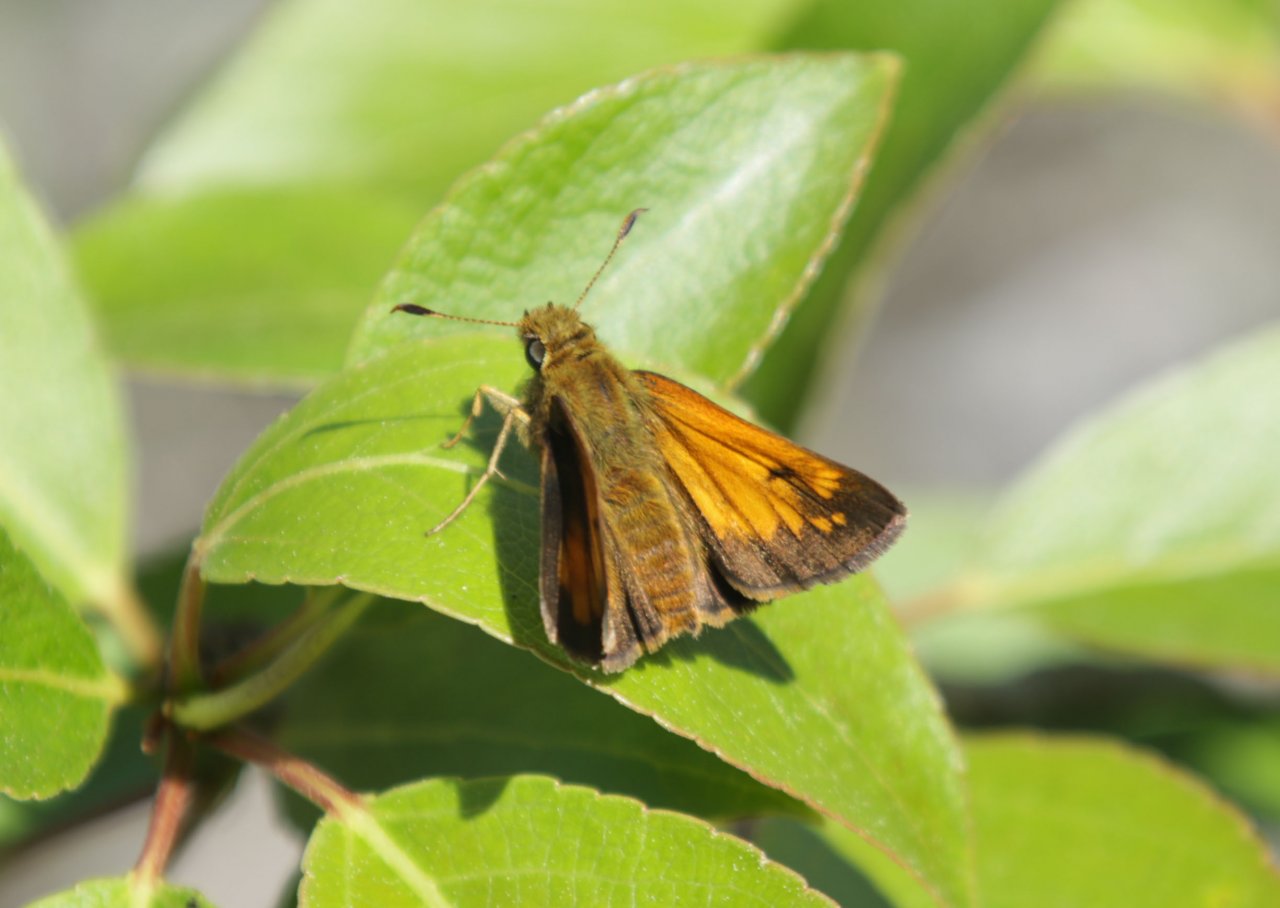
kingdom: Animalia
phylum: Arthropoda
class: Insecta
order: Lepidoptera
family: Hesperiidae
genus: Lon
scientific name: Lon hobomok
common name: Hobomok Skipper
